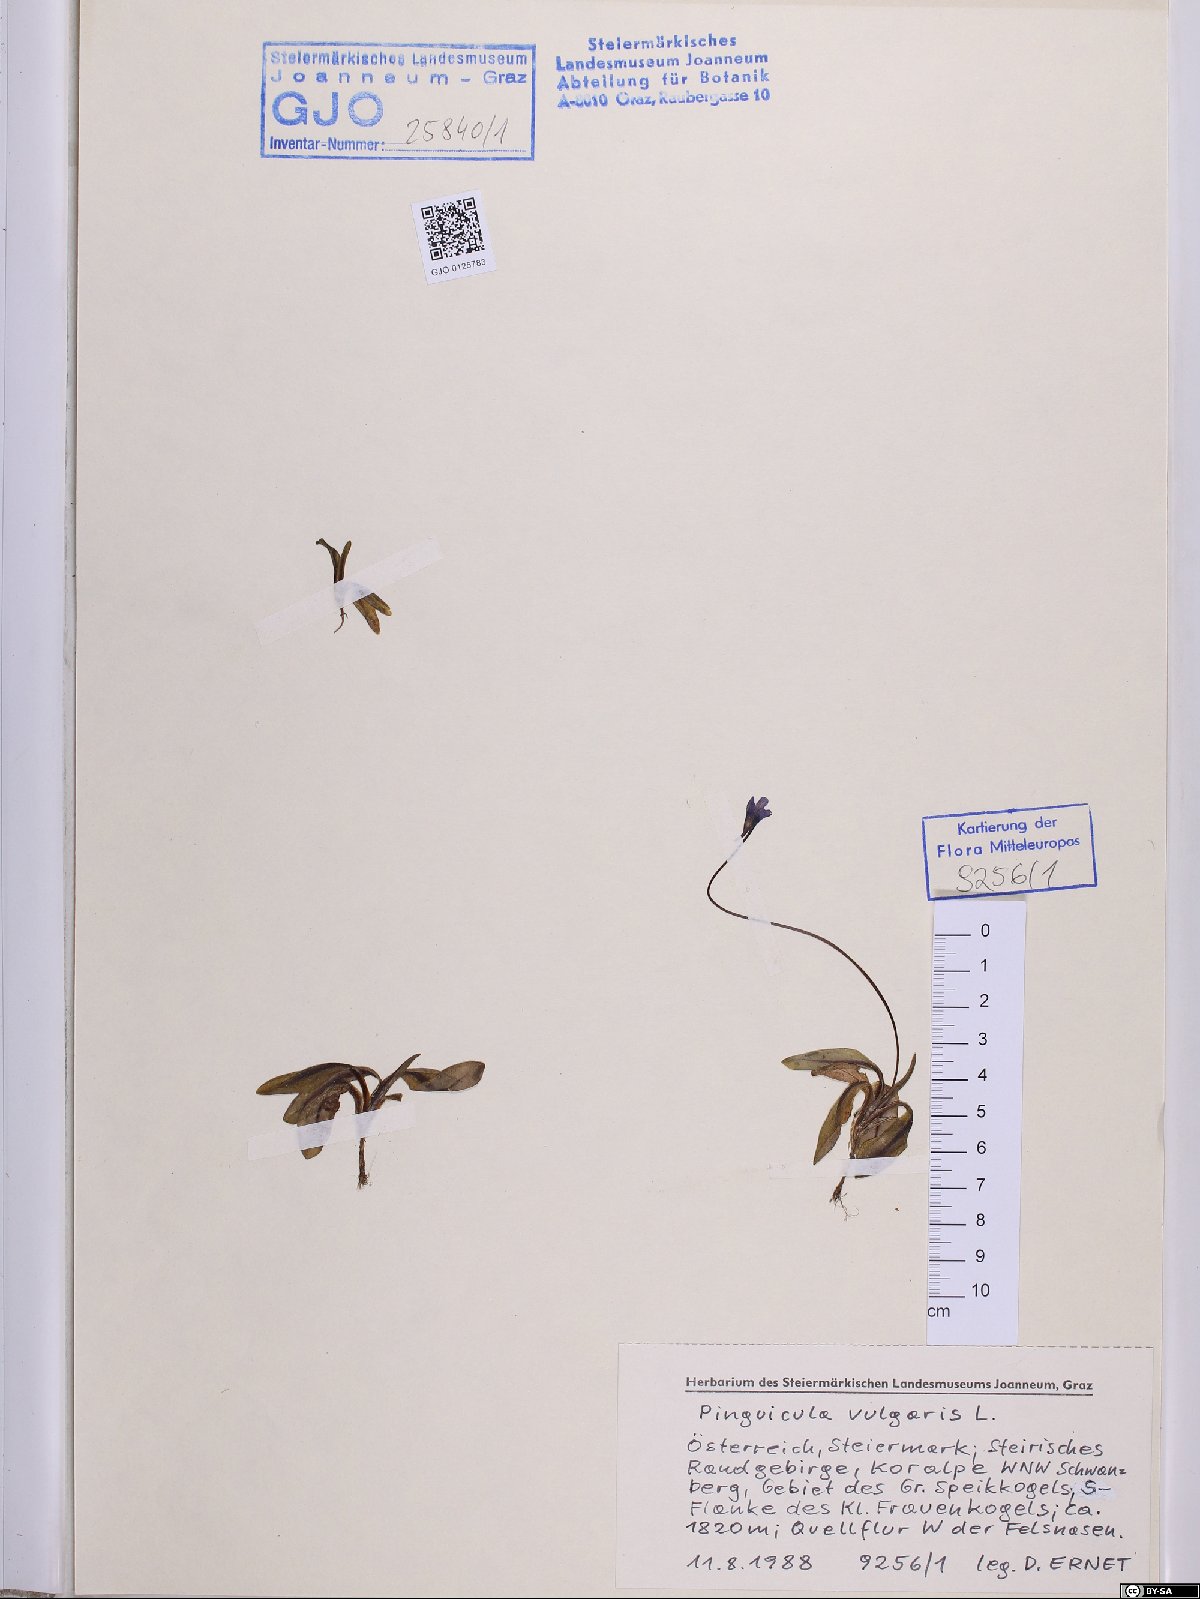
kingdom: Plantae
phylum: Tracheophyta
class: Magnoliopsida
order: Lamiales
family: Lentibulariaceae
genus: Pinguicula
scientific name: Pinguicula vulgaris
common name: Common butterwort
